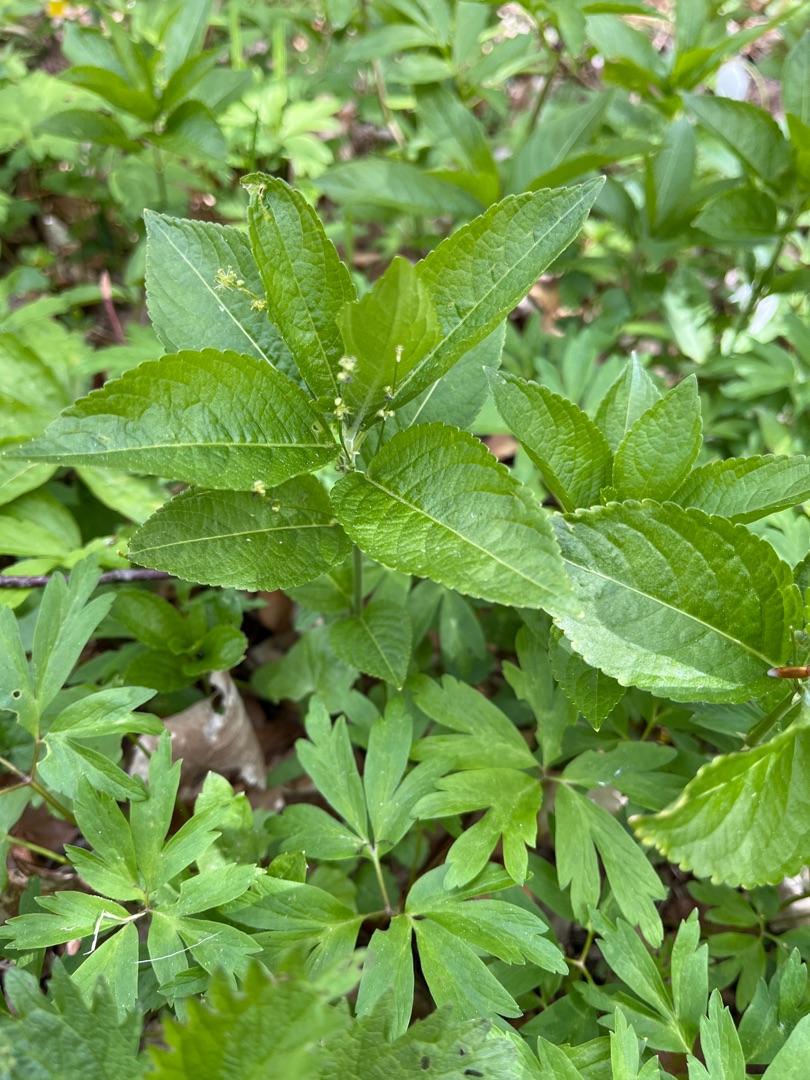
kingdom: Plantae
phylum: Tracheophyta
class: Magnoliopsida
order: Malpighiales
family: Euphorbiaceae
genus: Mercurialis
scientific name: Mercurialis perennis
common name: Almindelig bingelurt
